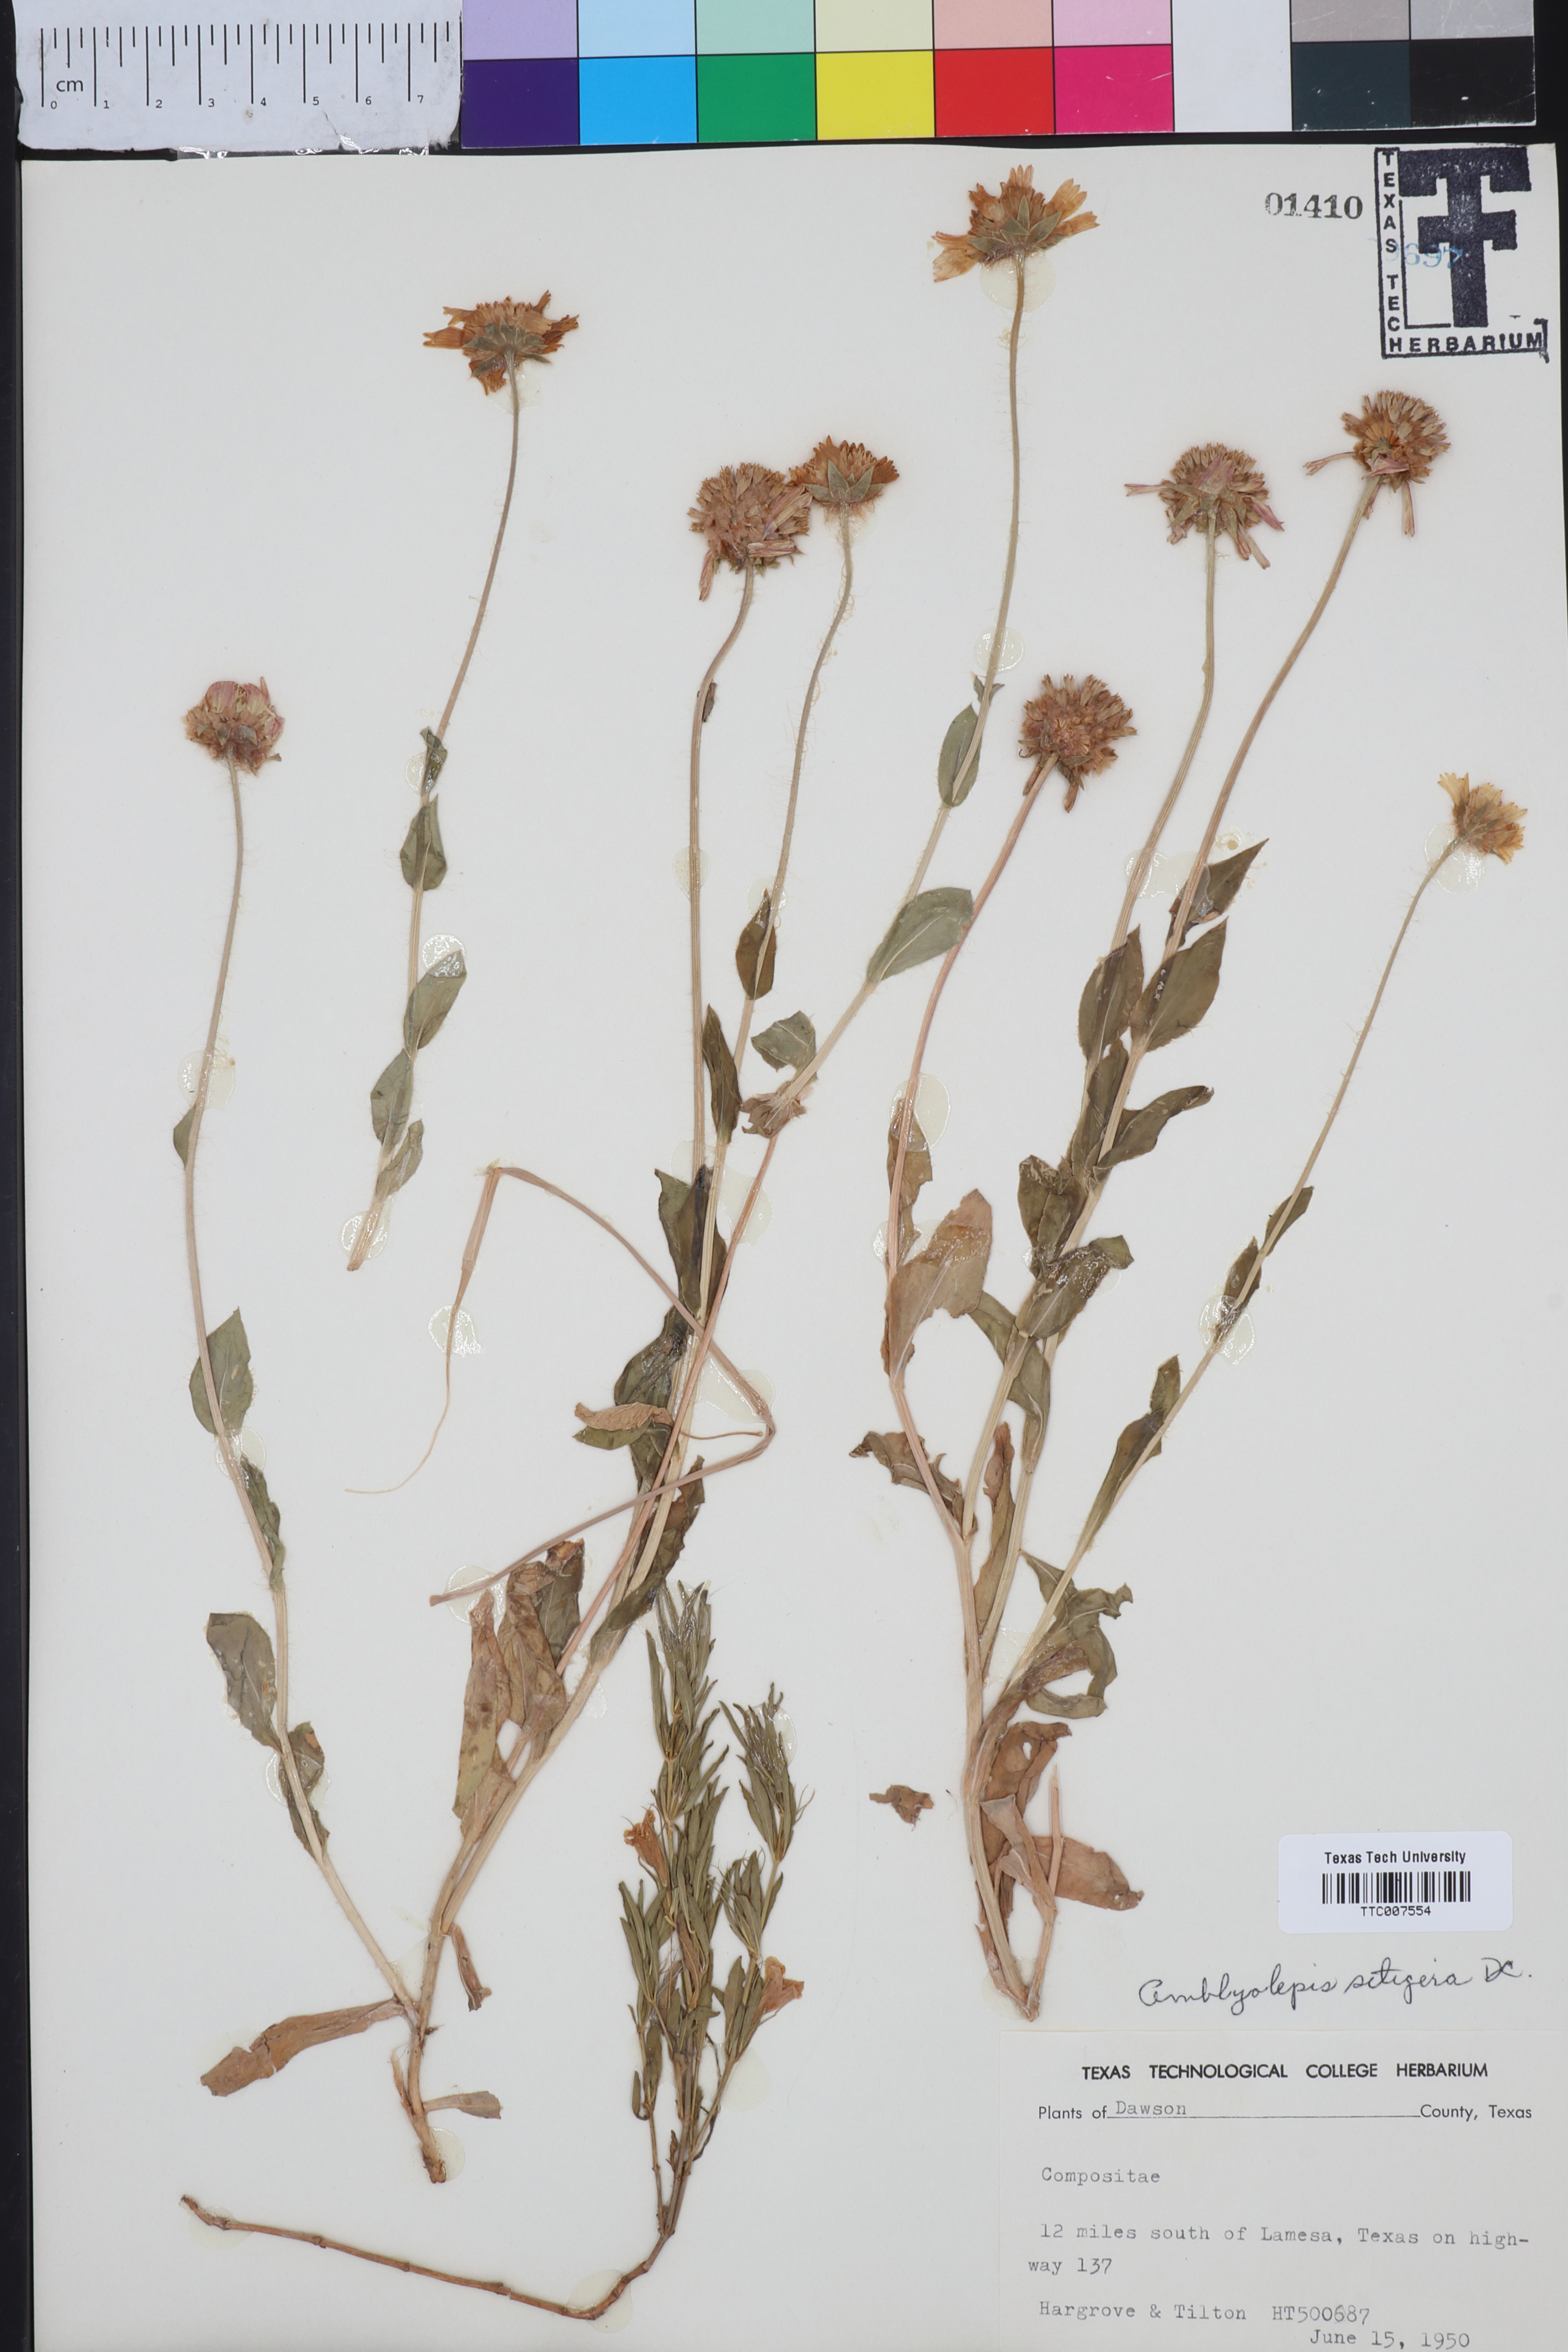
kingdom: Plantae
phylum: Tracheophyta
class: Magnoliopsida
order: Asterales
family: Asteraceae
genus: Amblyolepis
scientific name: Amblyolepis setigera
